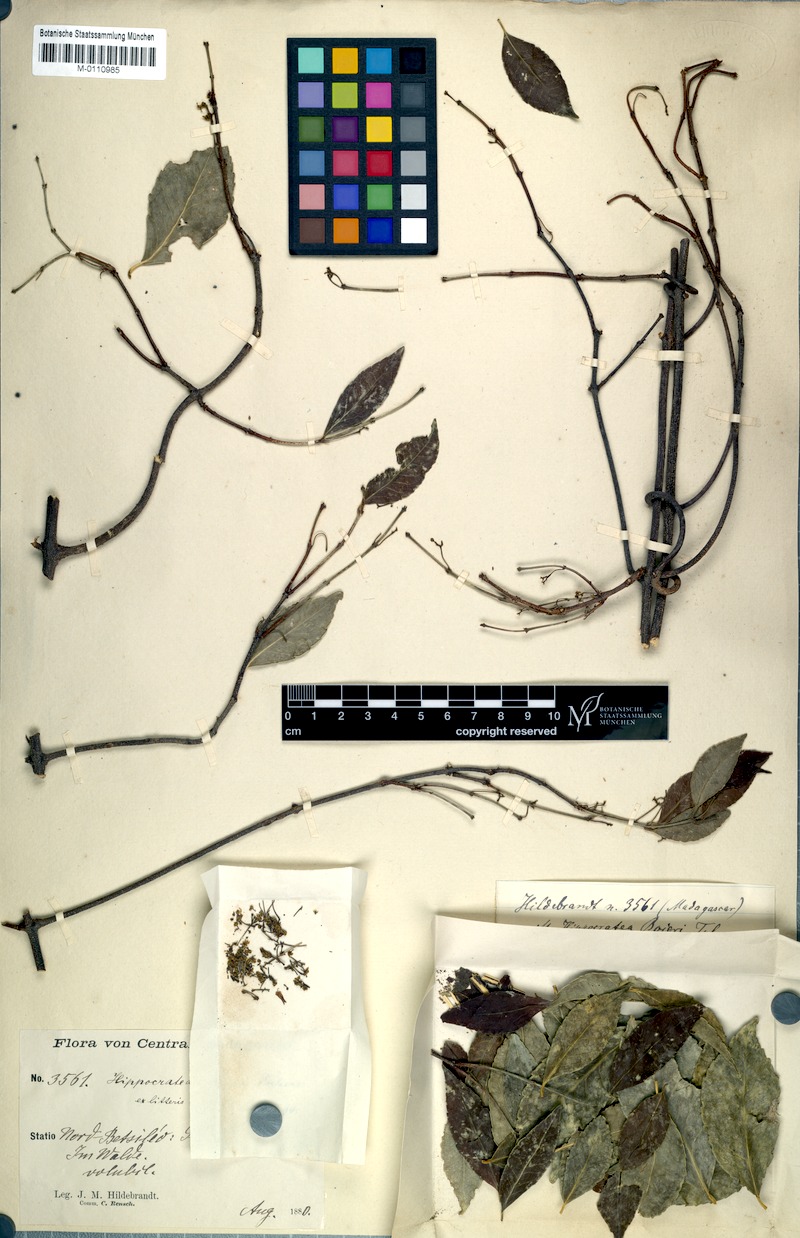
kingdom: Plantae
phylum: Tracheophyta
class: Magnoliopsida
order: Celastrales
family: Celastraceae
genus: Pristimera
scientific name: Pristimera bojeri
